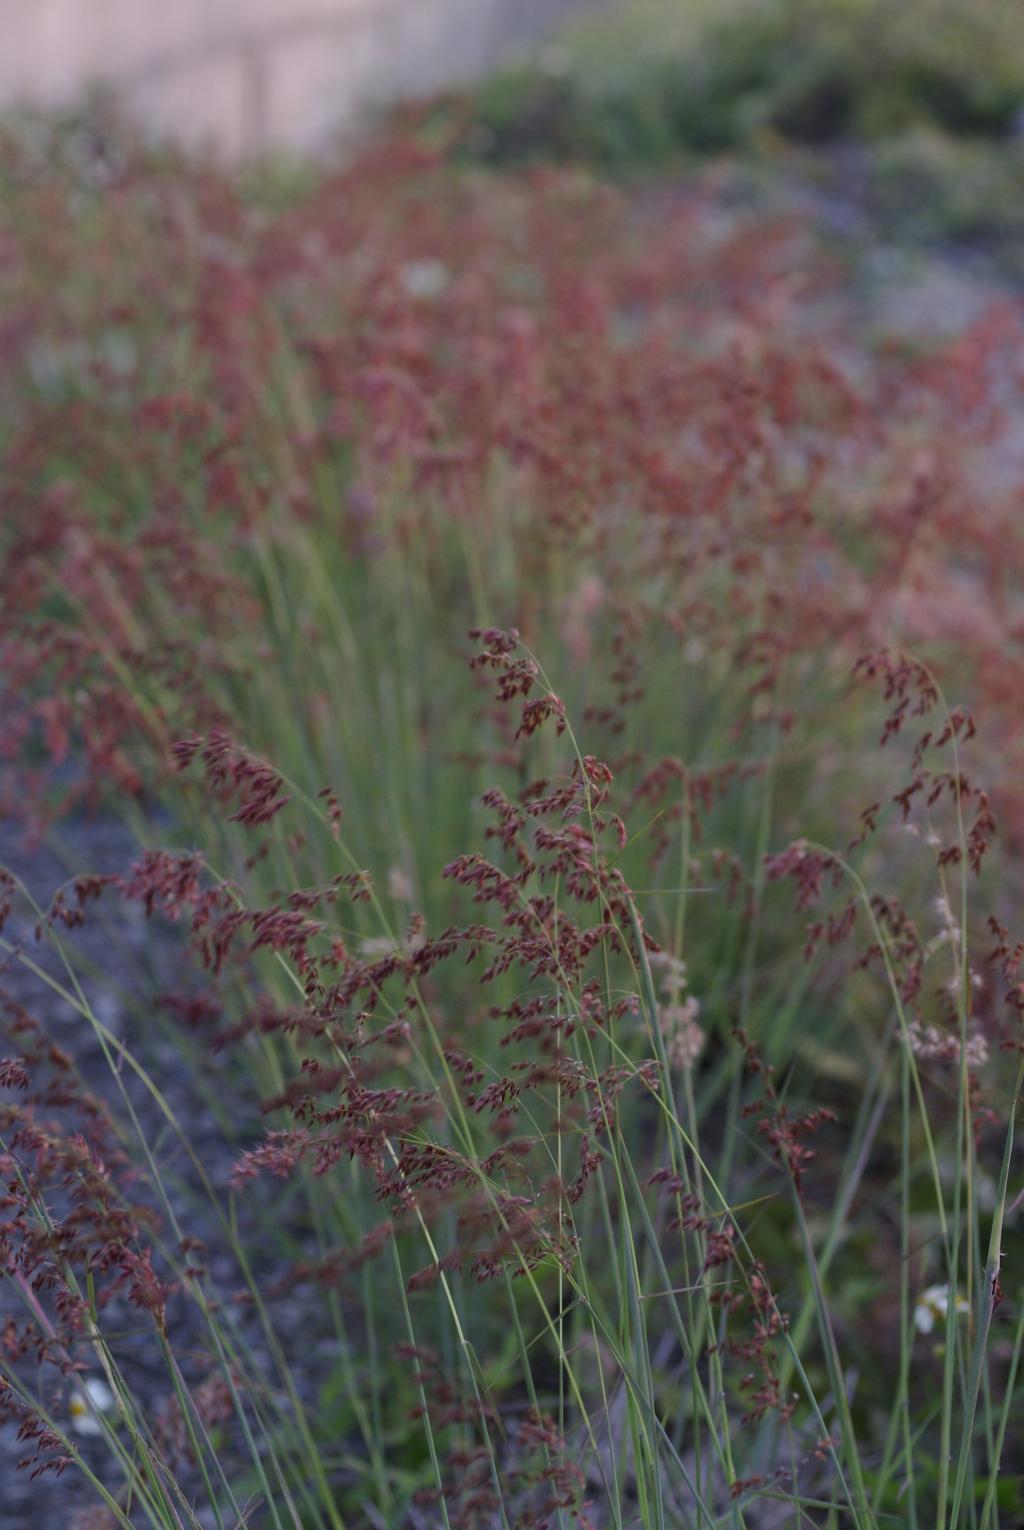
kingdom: Plantae
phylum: Tracheophyta
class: Liliopsida
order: Poales
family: Poaceae
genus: Melinis
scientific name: Melinis repens
